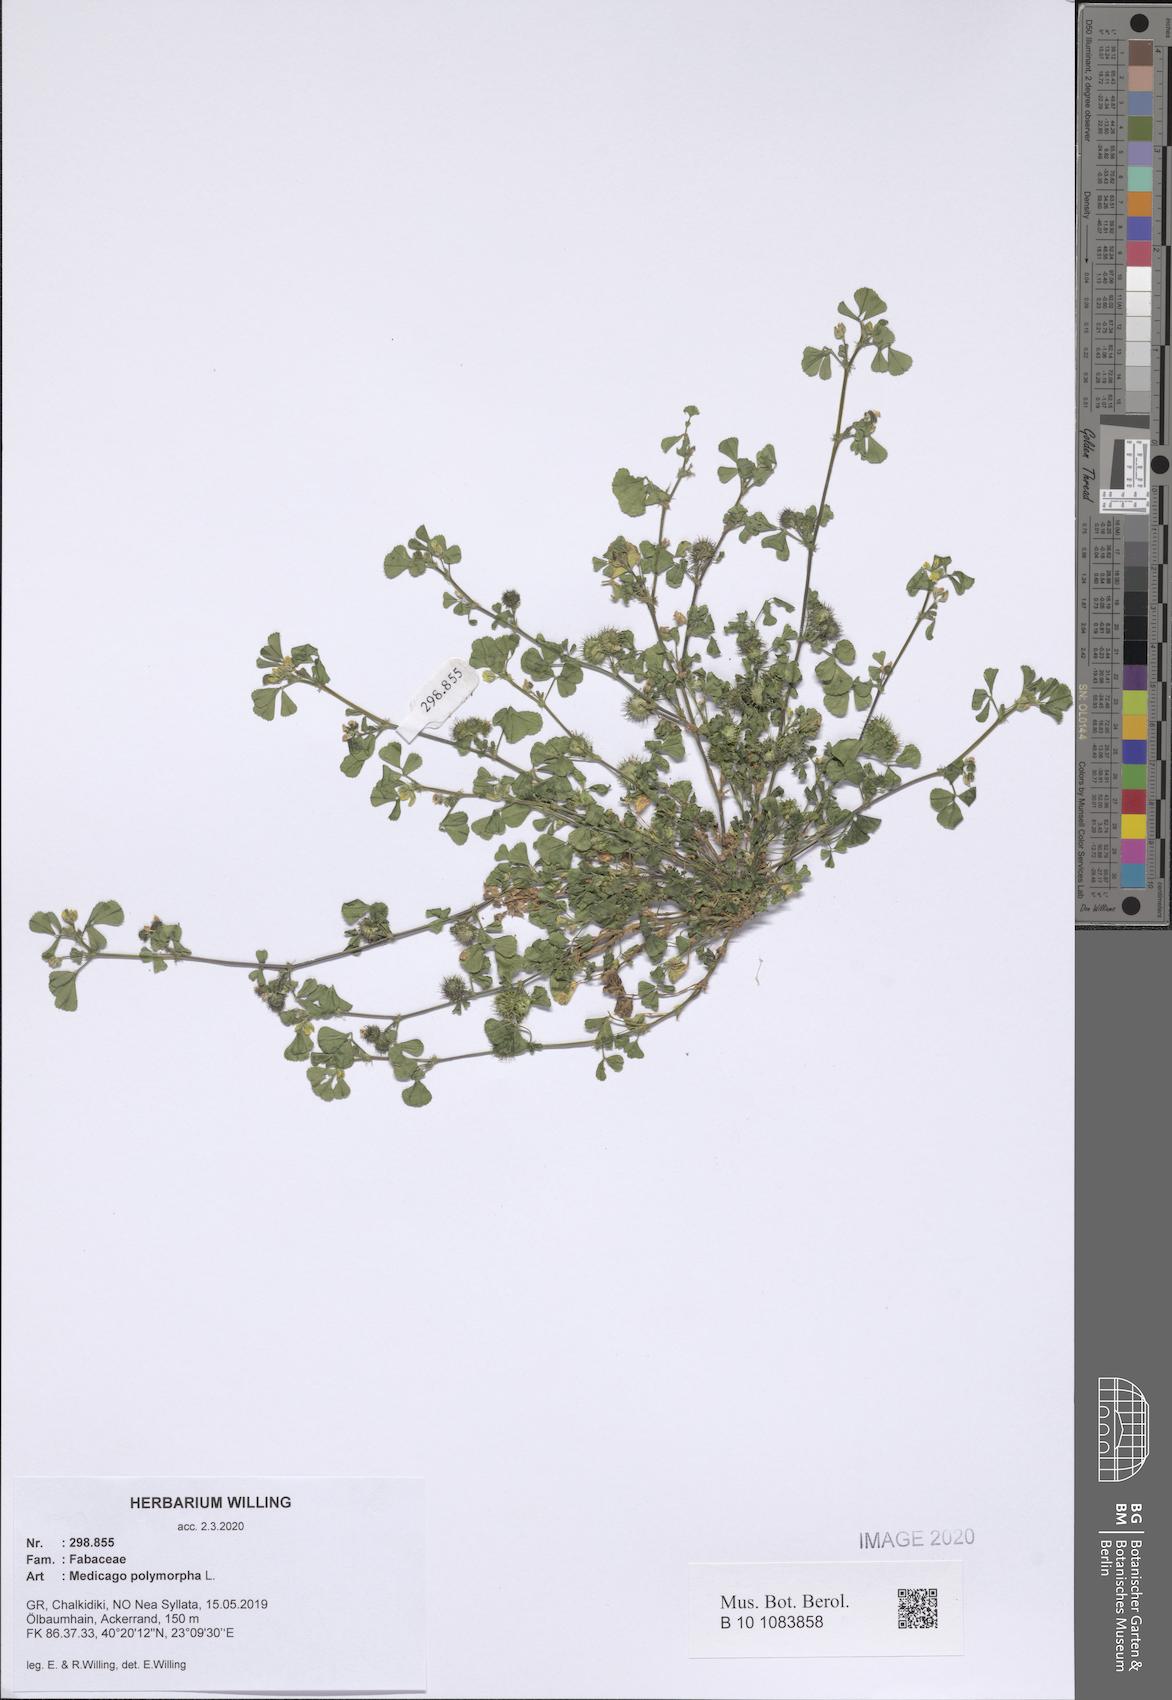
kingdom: Plantae
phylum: Tracheophyta
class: Magnoliopsida
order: Fabales
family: Fabaceae
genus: Medicago
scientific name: Medicago polymorpha
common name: Burclover
